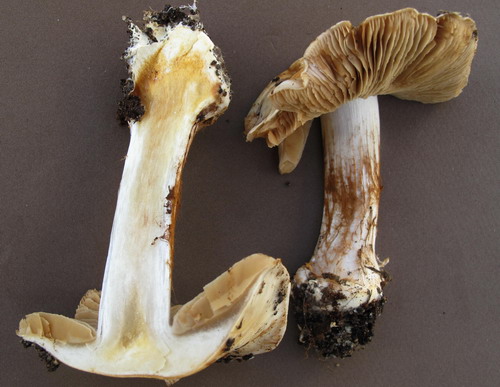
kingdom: Fungi
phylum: Basidiomycota
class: Agaricomycetes
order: Agaricales
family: Cortinariaceae
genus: Cortinarius
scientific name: Cortinarius foetens
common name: stribet slørhat
